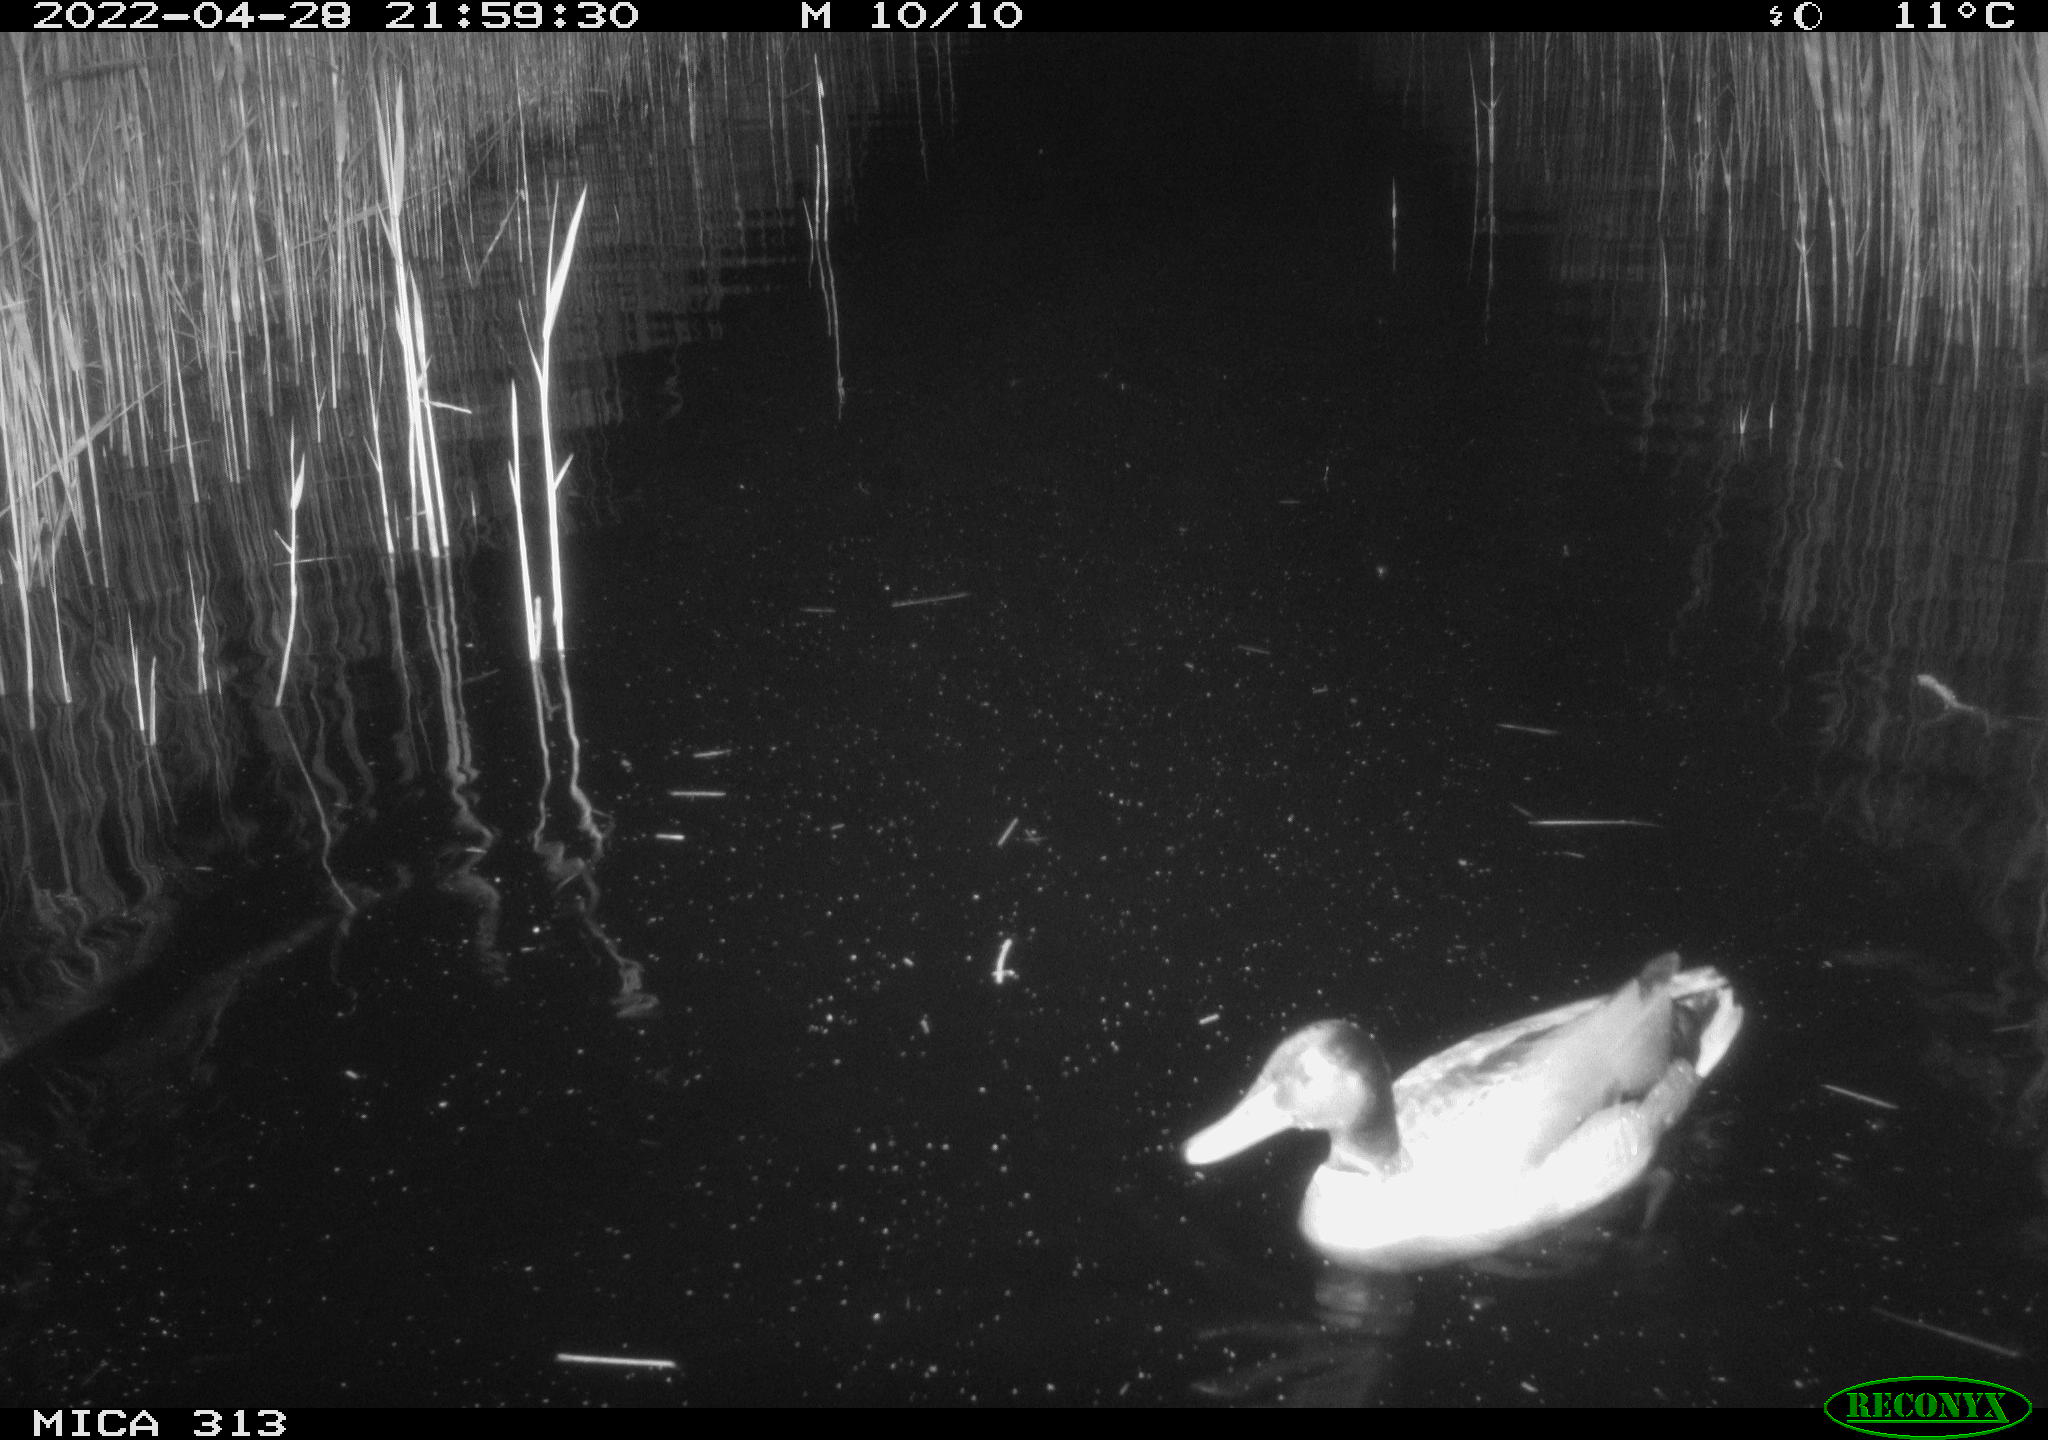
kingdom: Animalia
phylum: Chordata
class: Aves
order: Anseriformes
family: Anatidae
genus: Mareca
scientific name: Mareca strepera
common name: Gadwall
